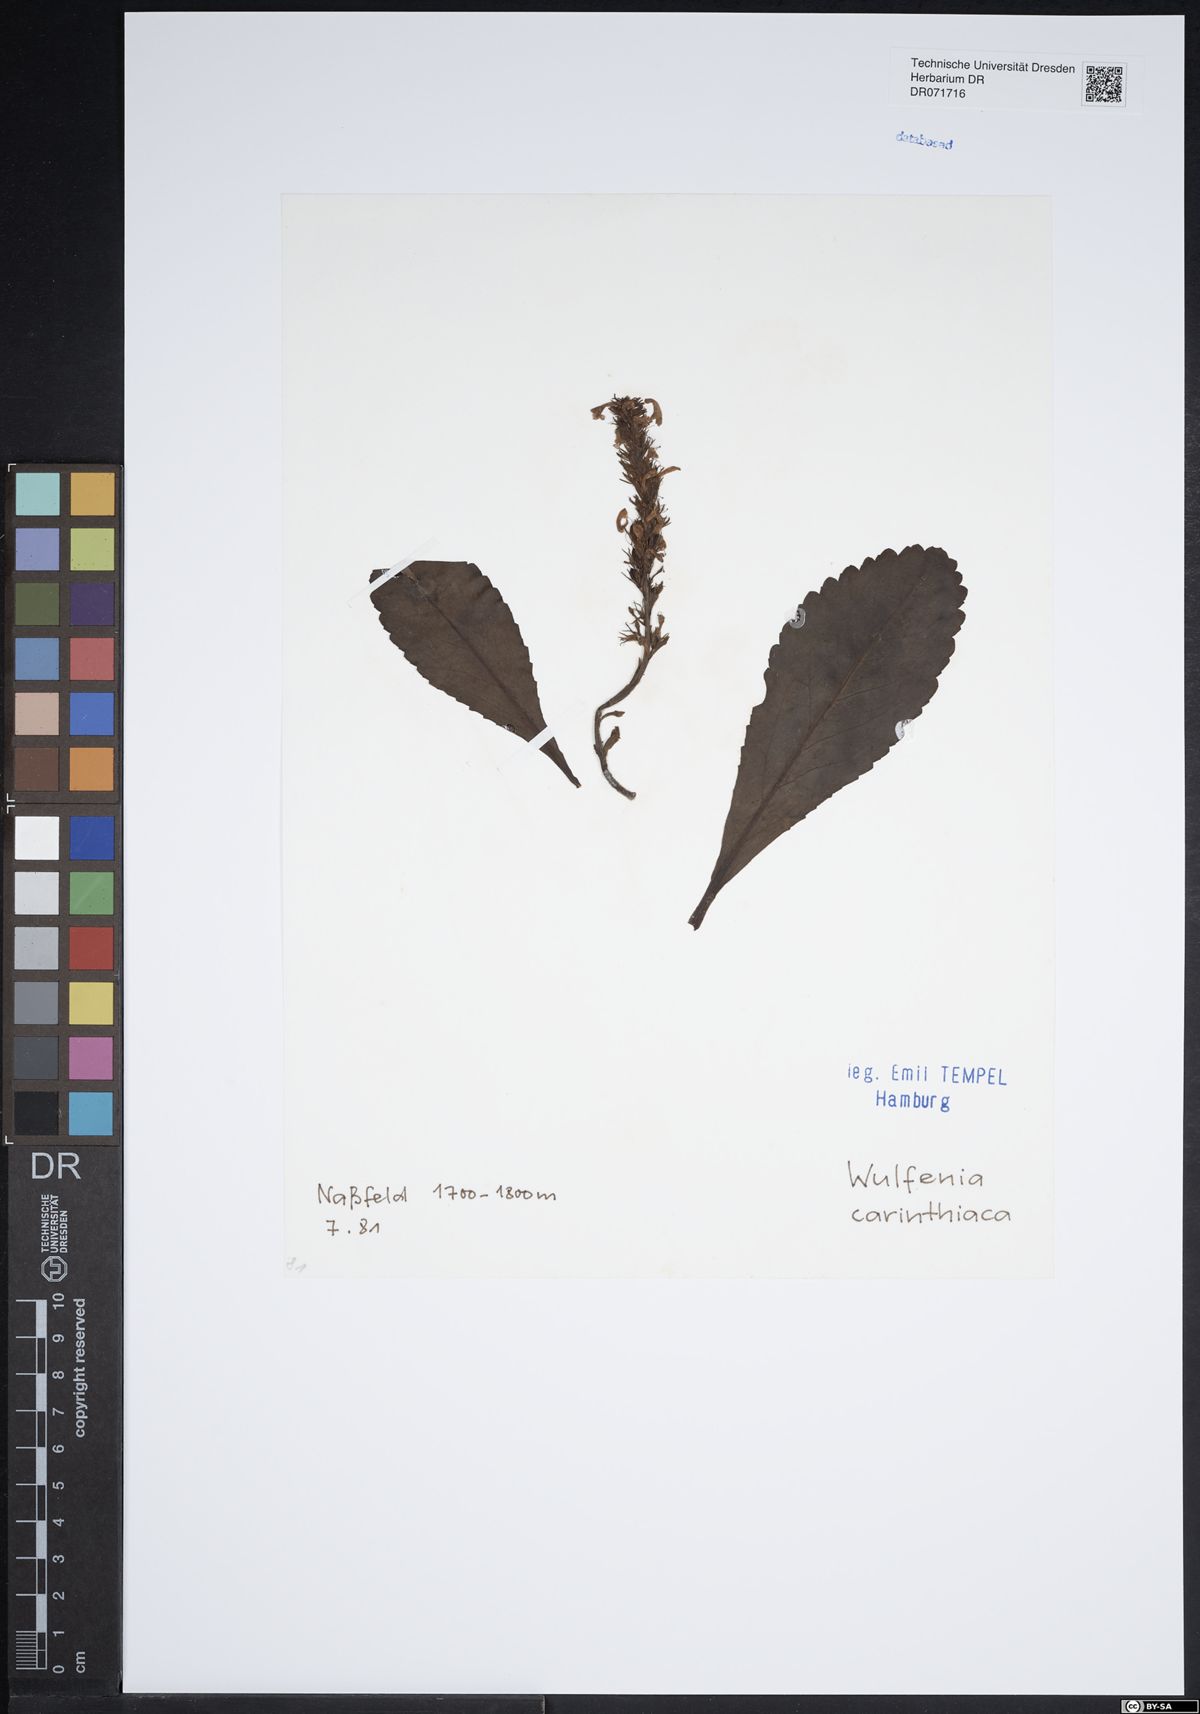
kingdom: Plantae
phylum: Tracheophyta
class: Magnoliopsida
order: Lamiales
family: Plantaginaceae
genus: Wulfenia
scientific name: Wulfenia carinthiaca
